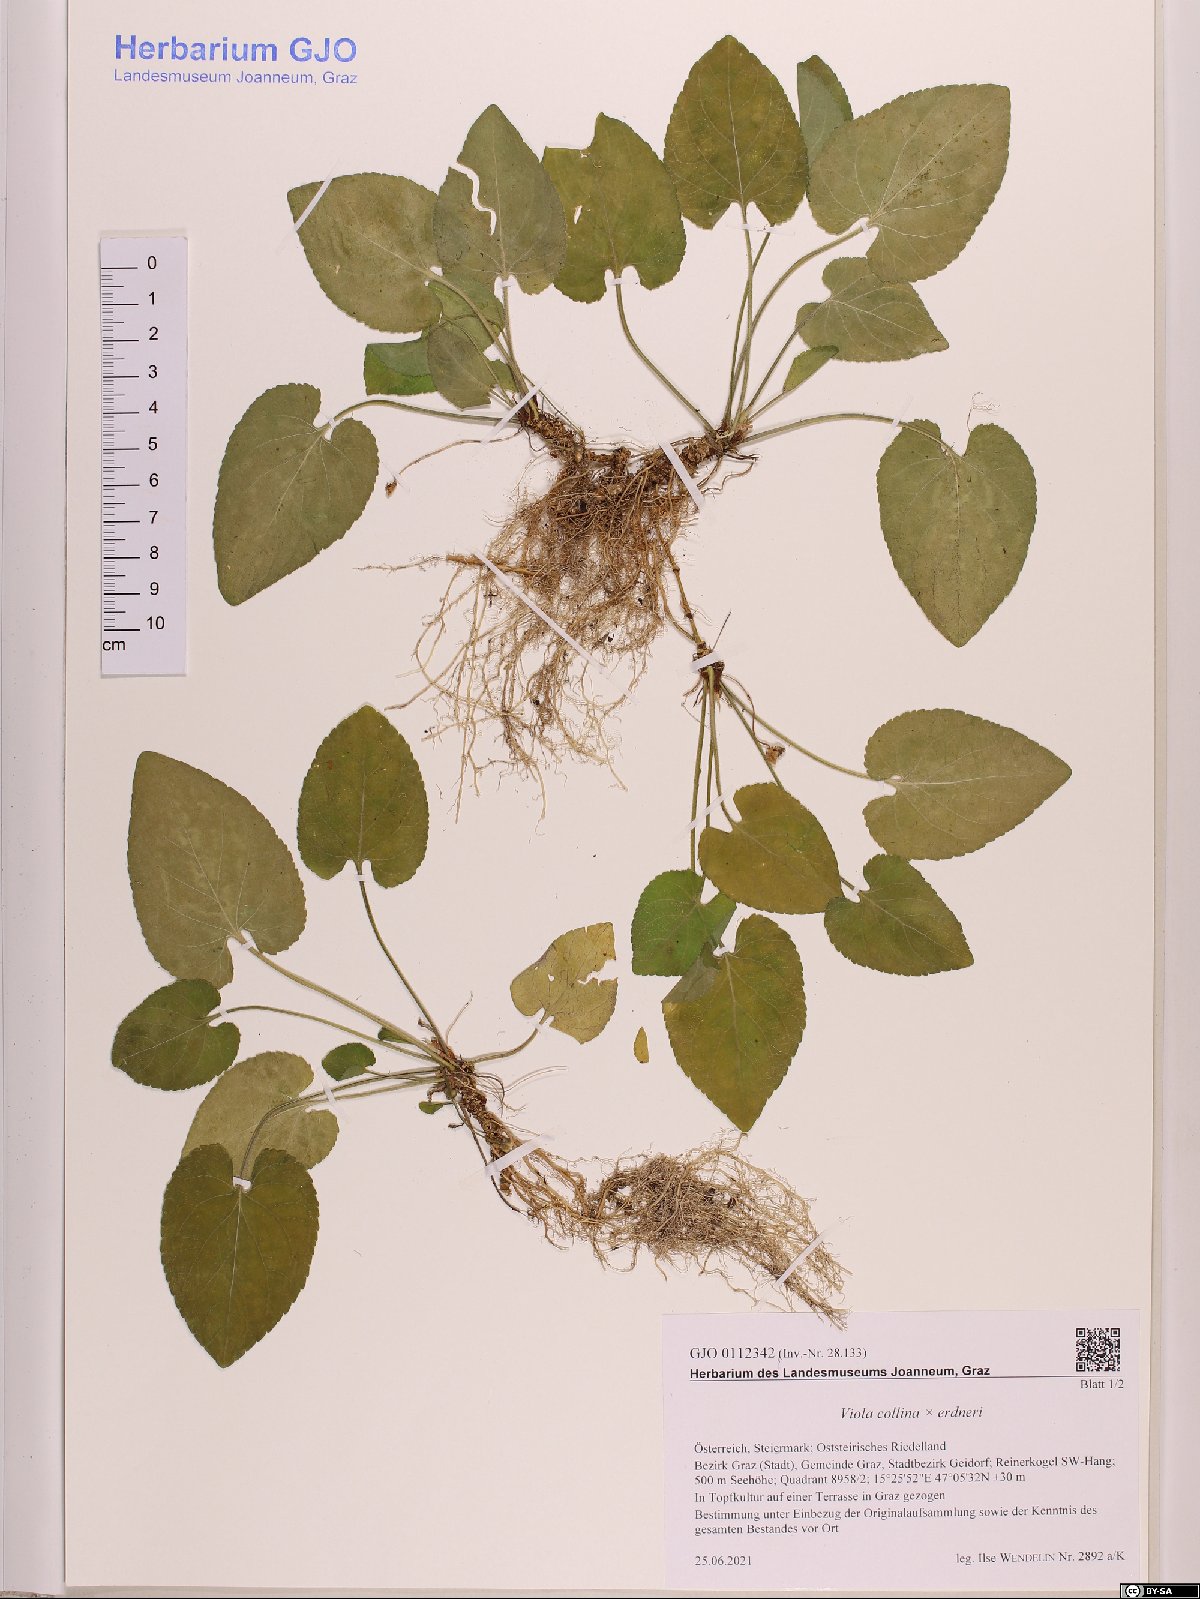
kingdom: Plantae
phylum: Tracheophyta
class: Magnoliopsida
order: Malpighiales
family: Violaceae
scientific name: Violaceae
